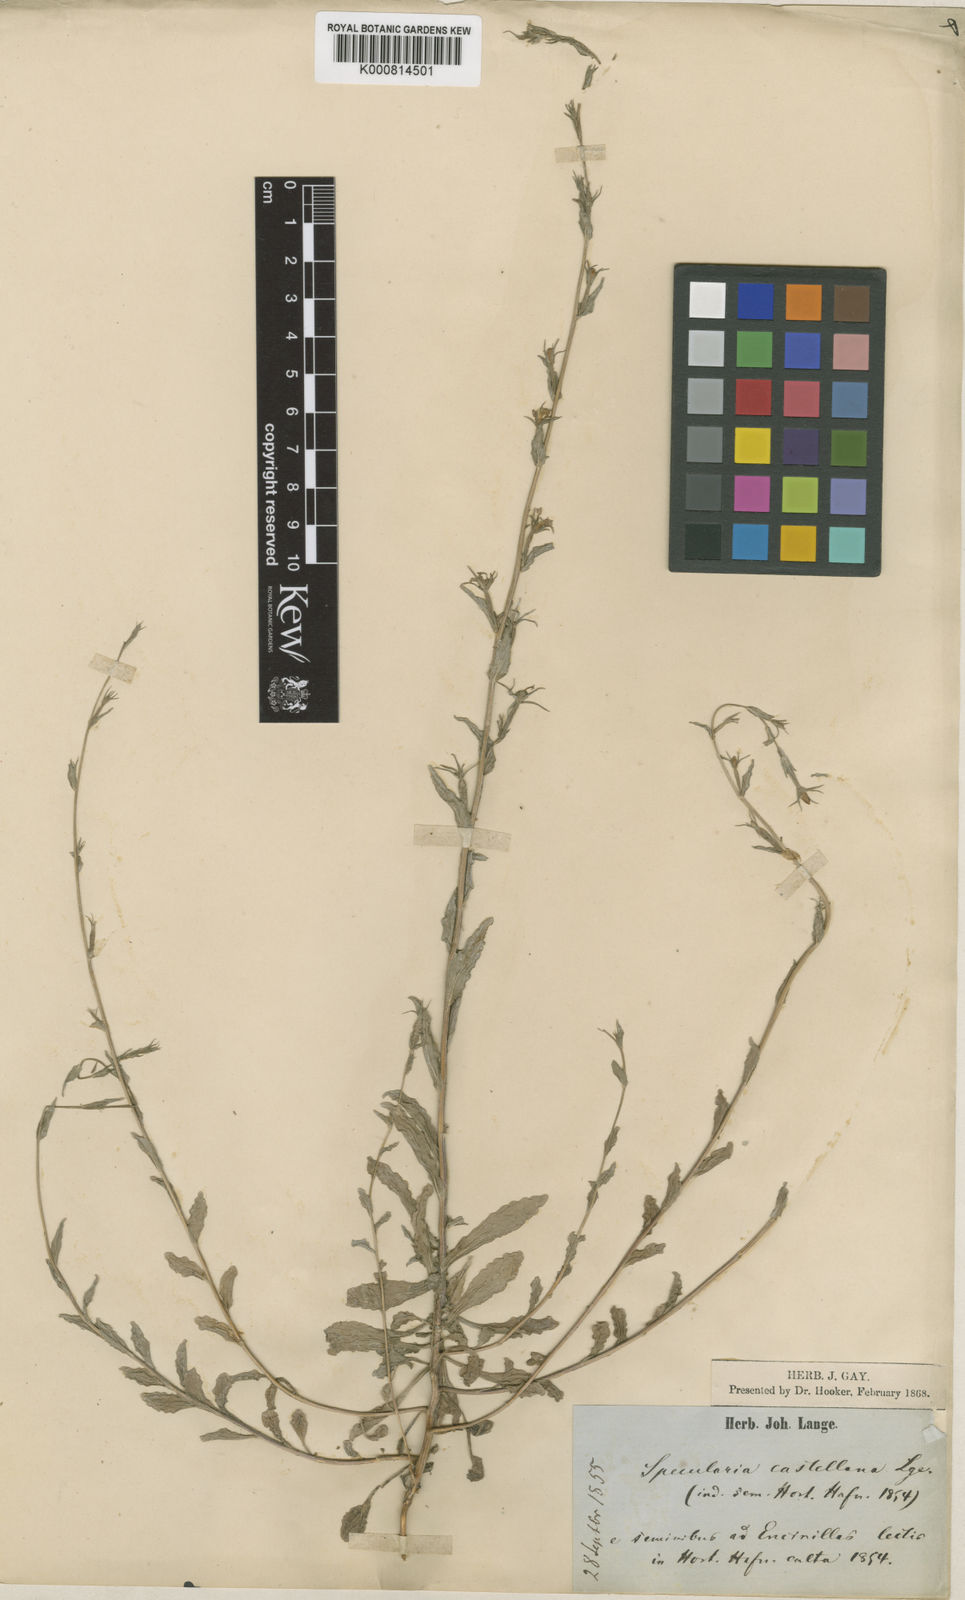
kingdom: Plantae
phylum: Tracheophyta
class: Magnoliopsida
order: Asterales
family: Campanulaceae
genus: Legousia
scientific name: Legousia falcata
